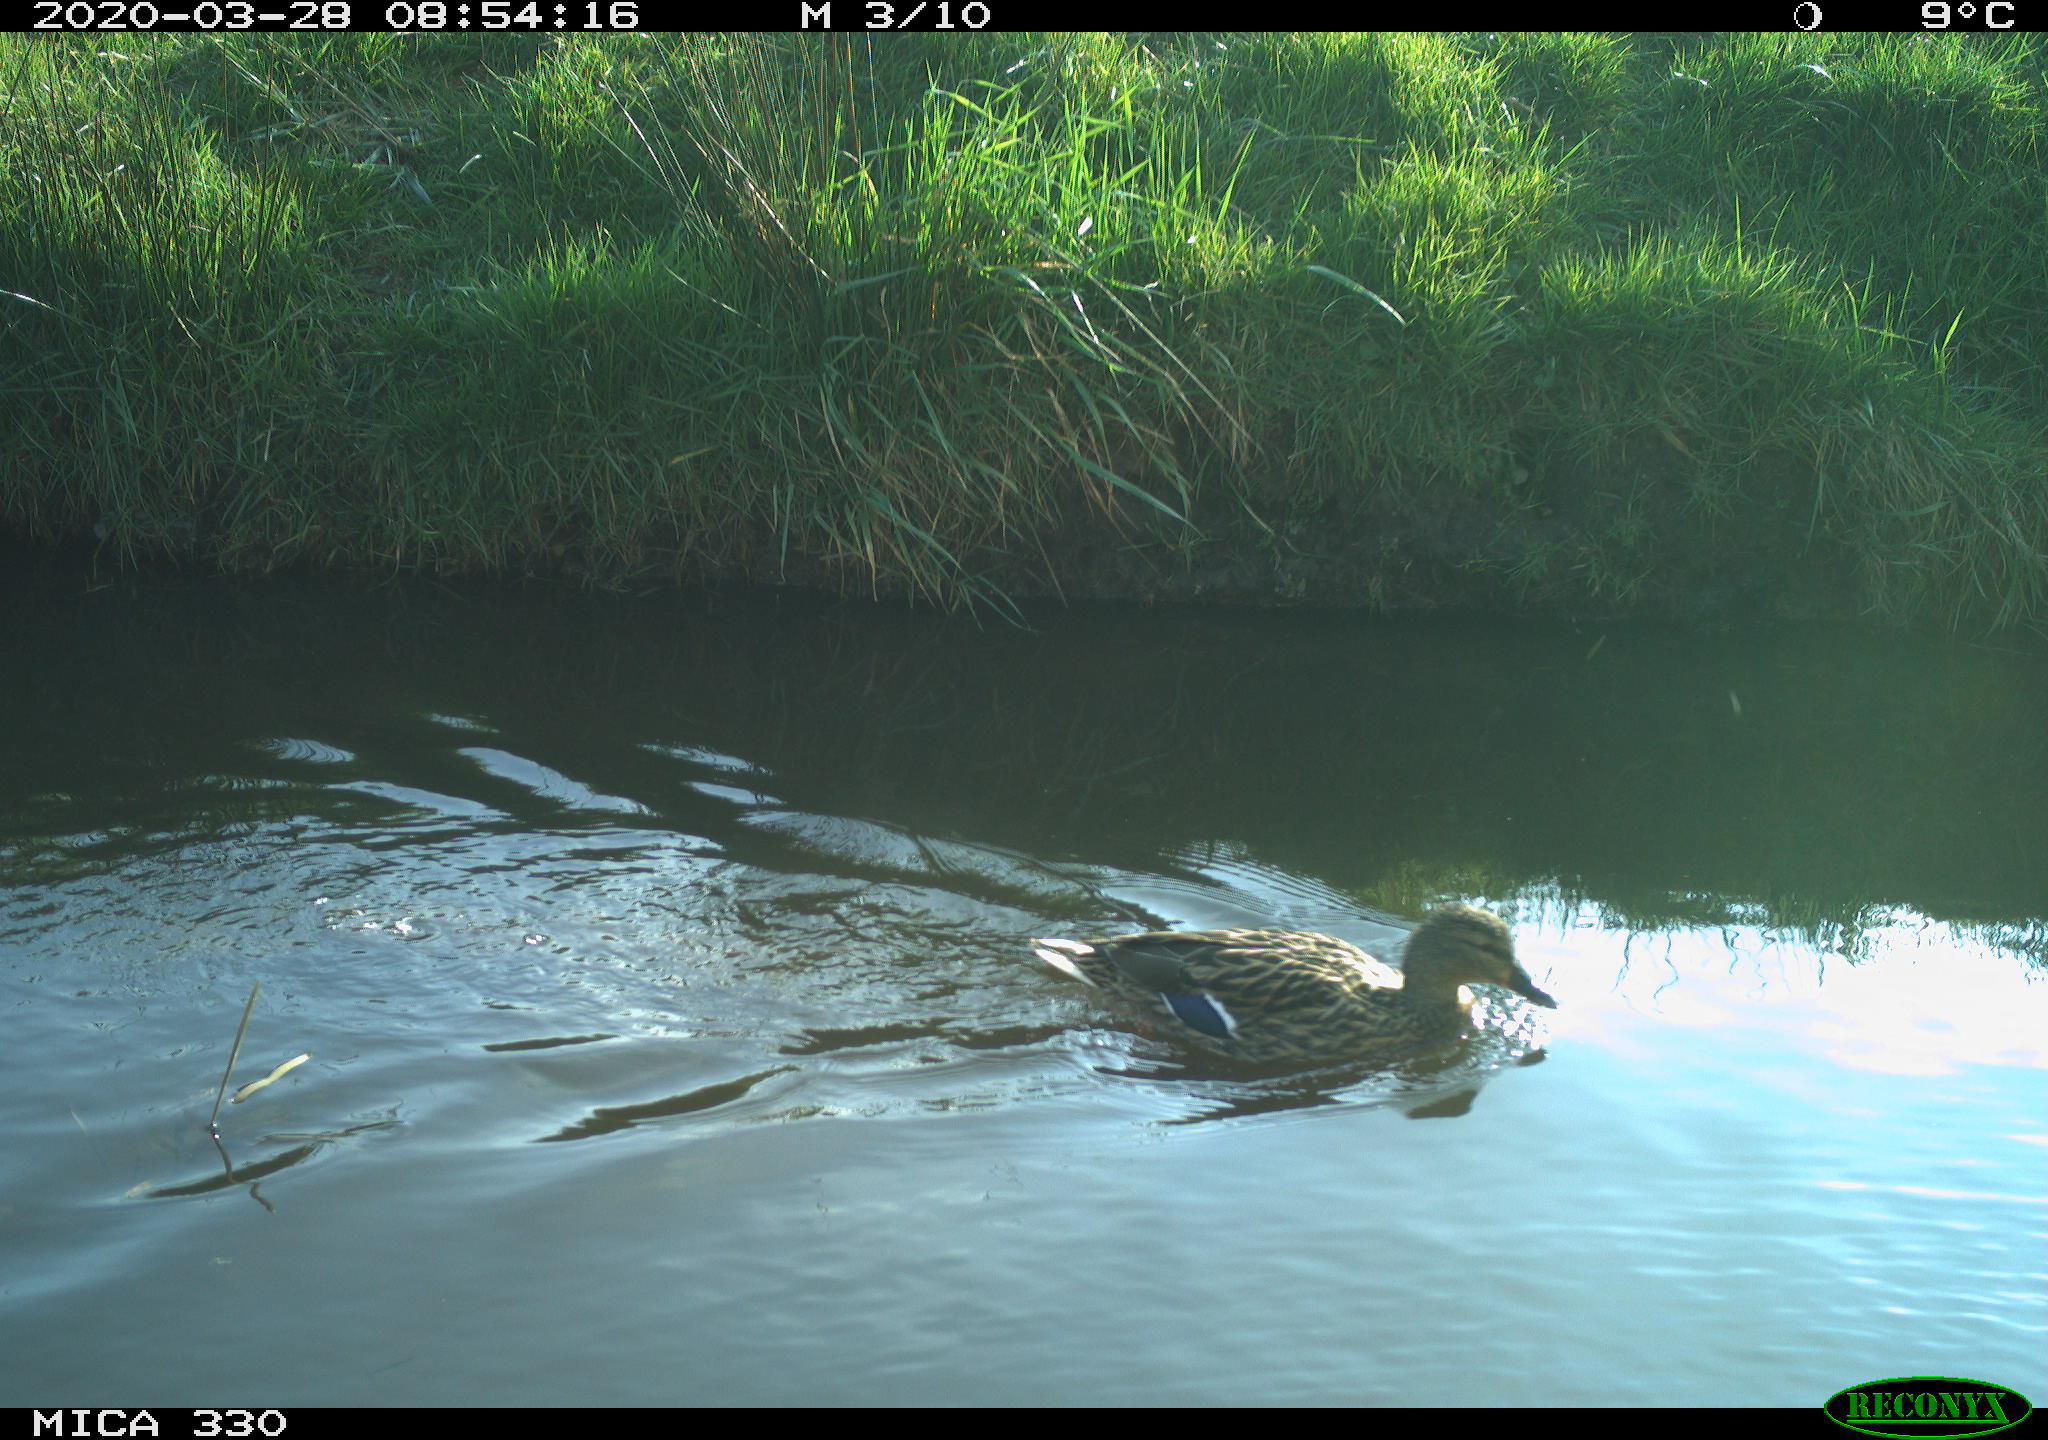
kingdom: Animalia
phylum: Chordata
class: Aves
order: Gruiformes
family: Rallidae
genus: Gallinula
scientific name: Gallinula chloropus
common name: Common moorhen
